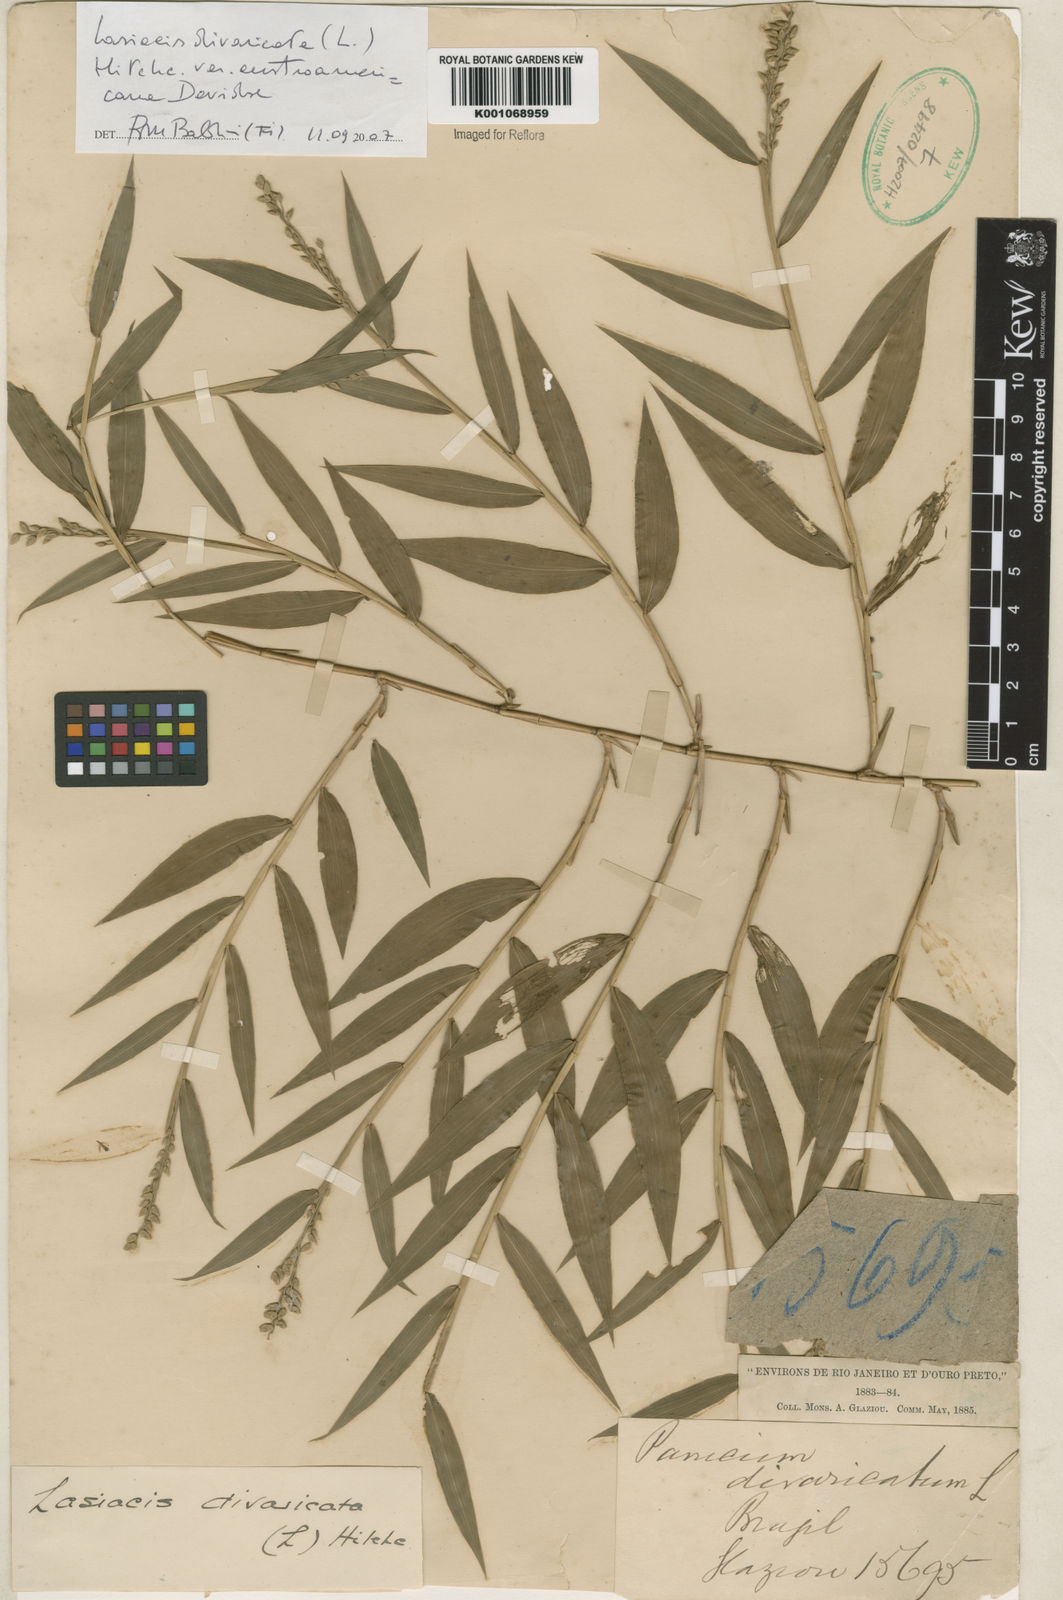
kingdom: Plantae
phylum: Tracheophyta
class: Liliopsida
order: Poales
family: Poaceae
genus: Lasiacis
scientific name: Lasiacis divaricata
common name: Smallcane
